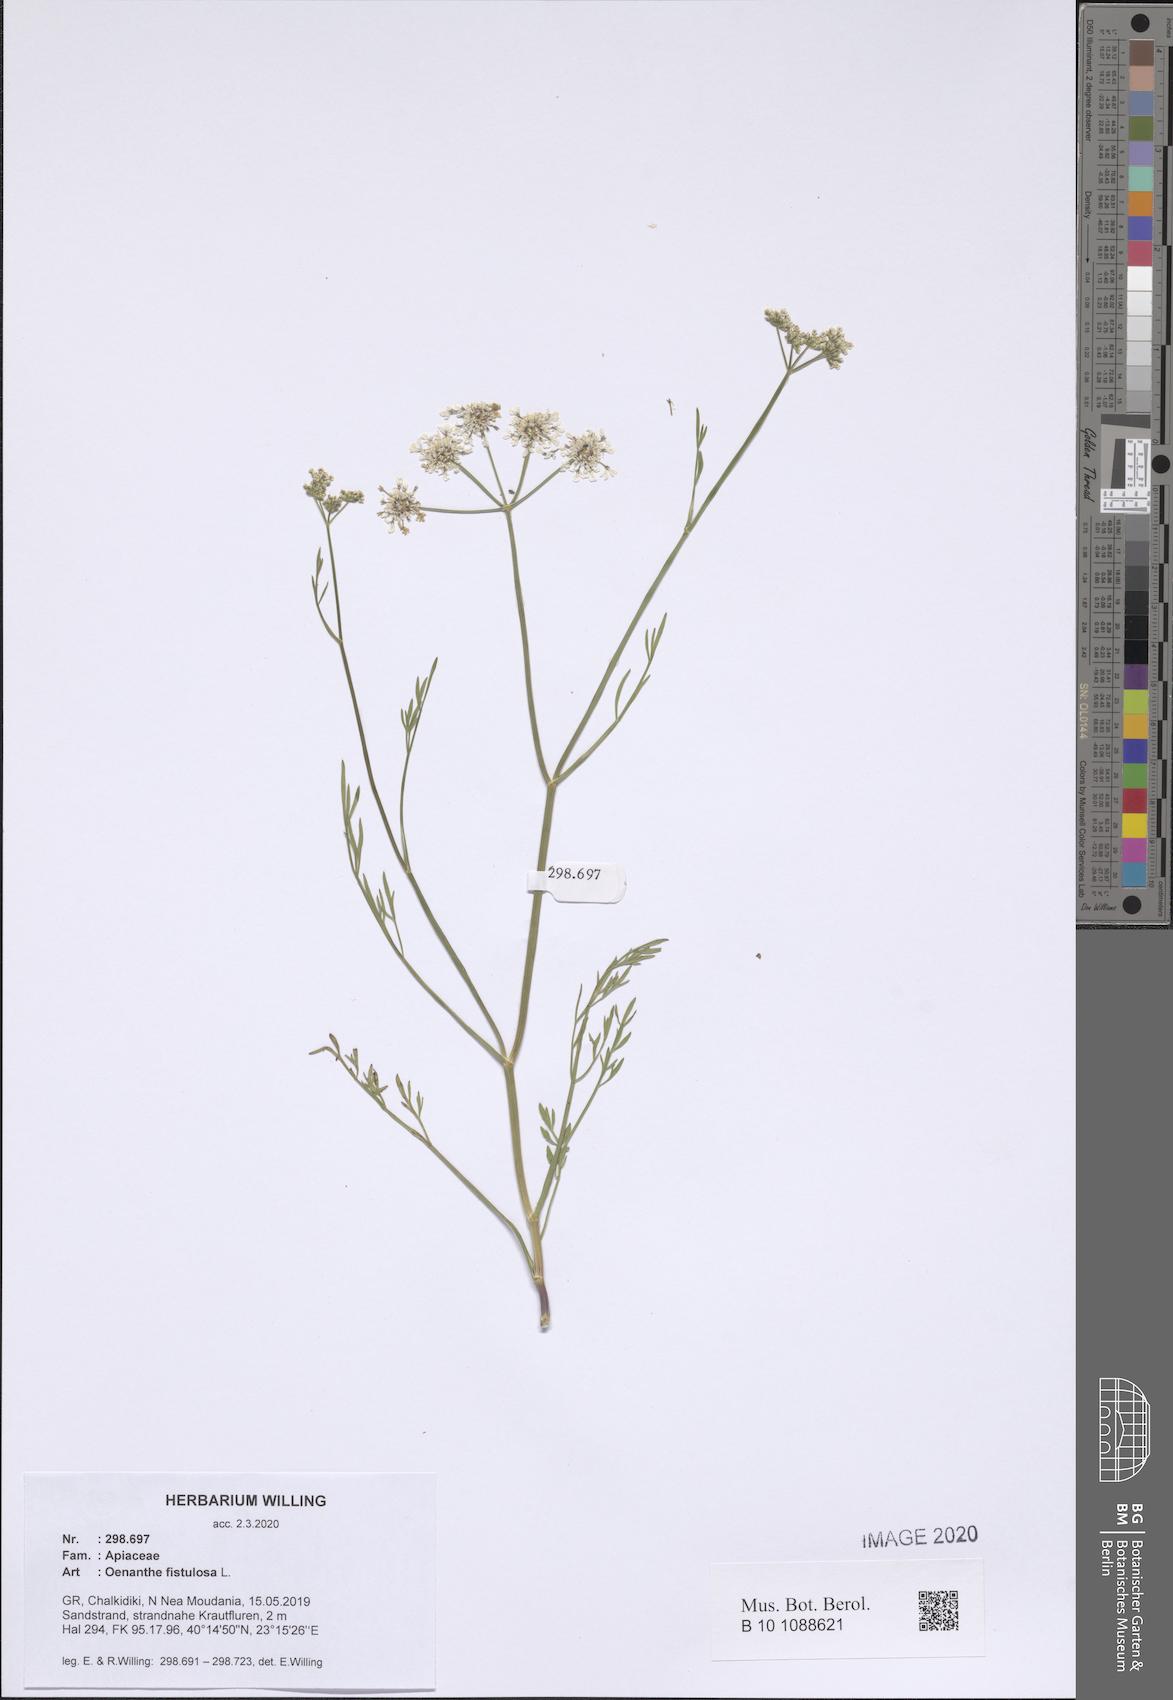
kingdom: Plantae
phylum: Tracheophyta
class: Magnoliopsida
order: Apiales
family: Apiaceae
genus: Oenanthe
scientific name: Oenanthe fistulosa
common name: Tubular water-dropwort
